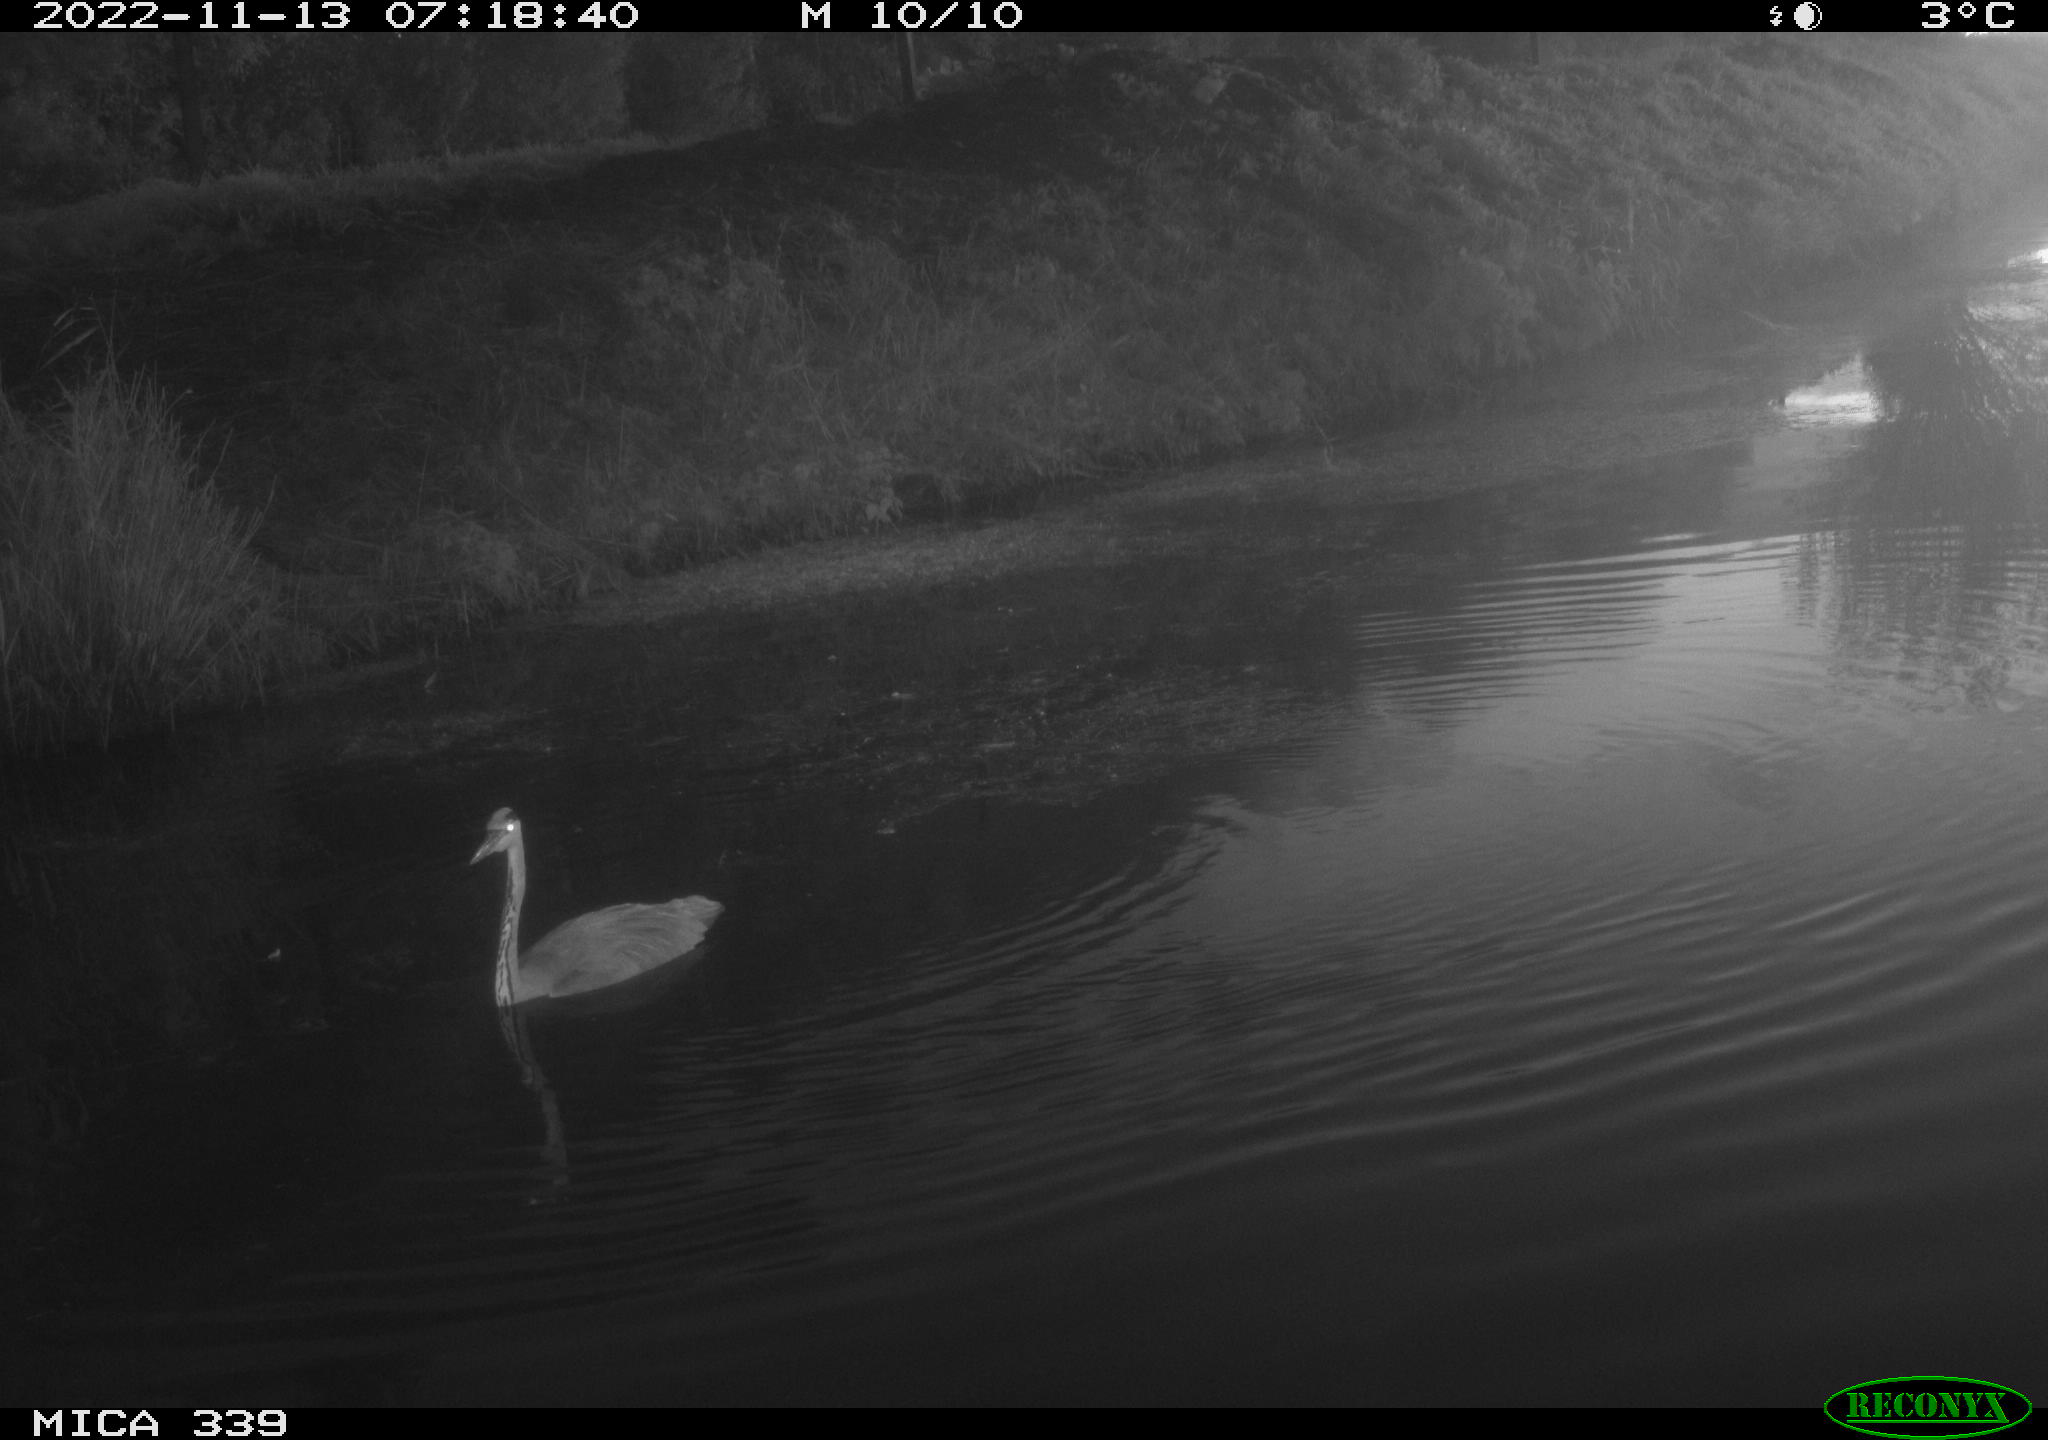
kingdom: Animalia
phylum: Chordata
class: Aves
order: Pelecaniformes
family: Ardeidae
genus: Ardea
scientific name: Ardea cinerea
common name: Grey heron
